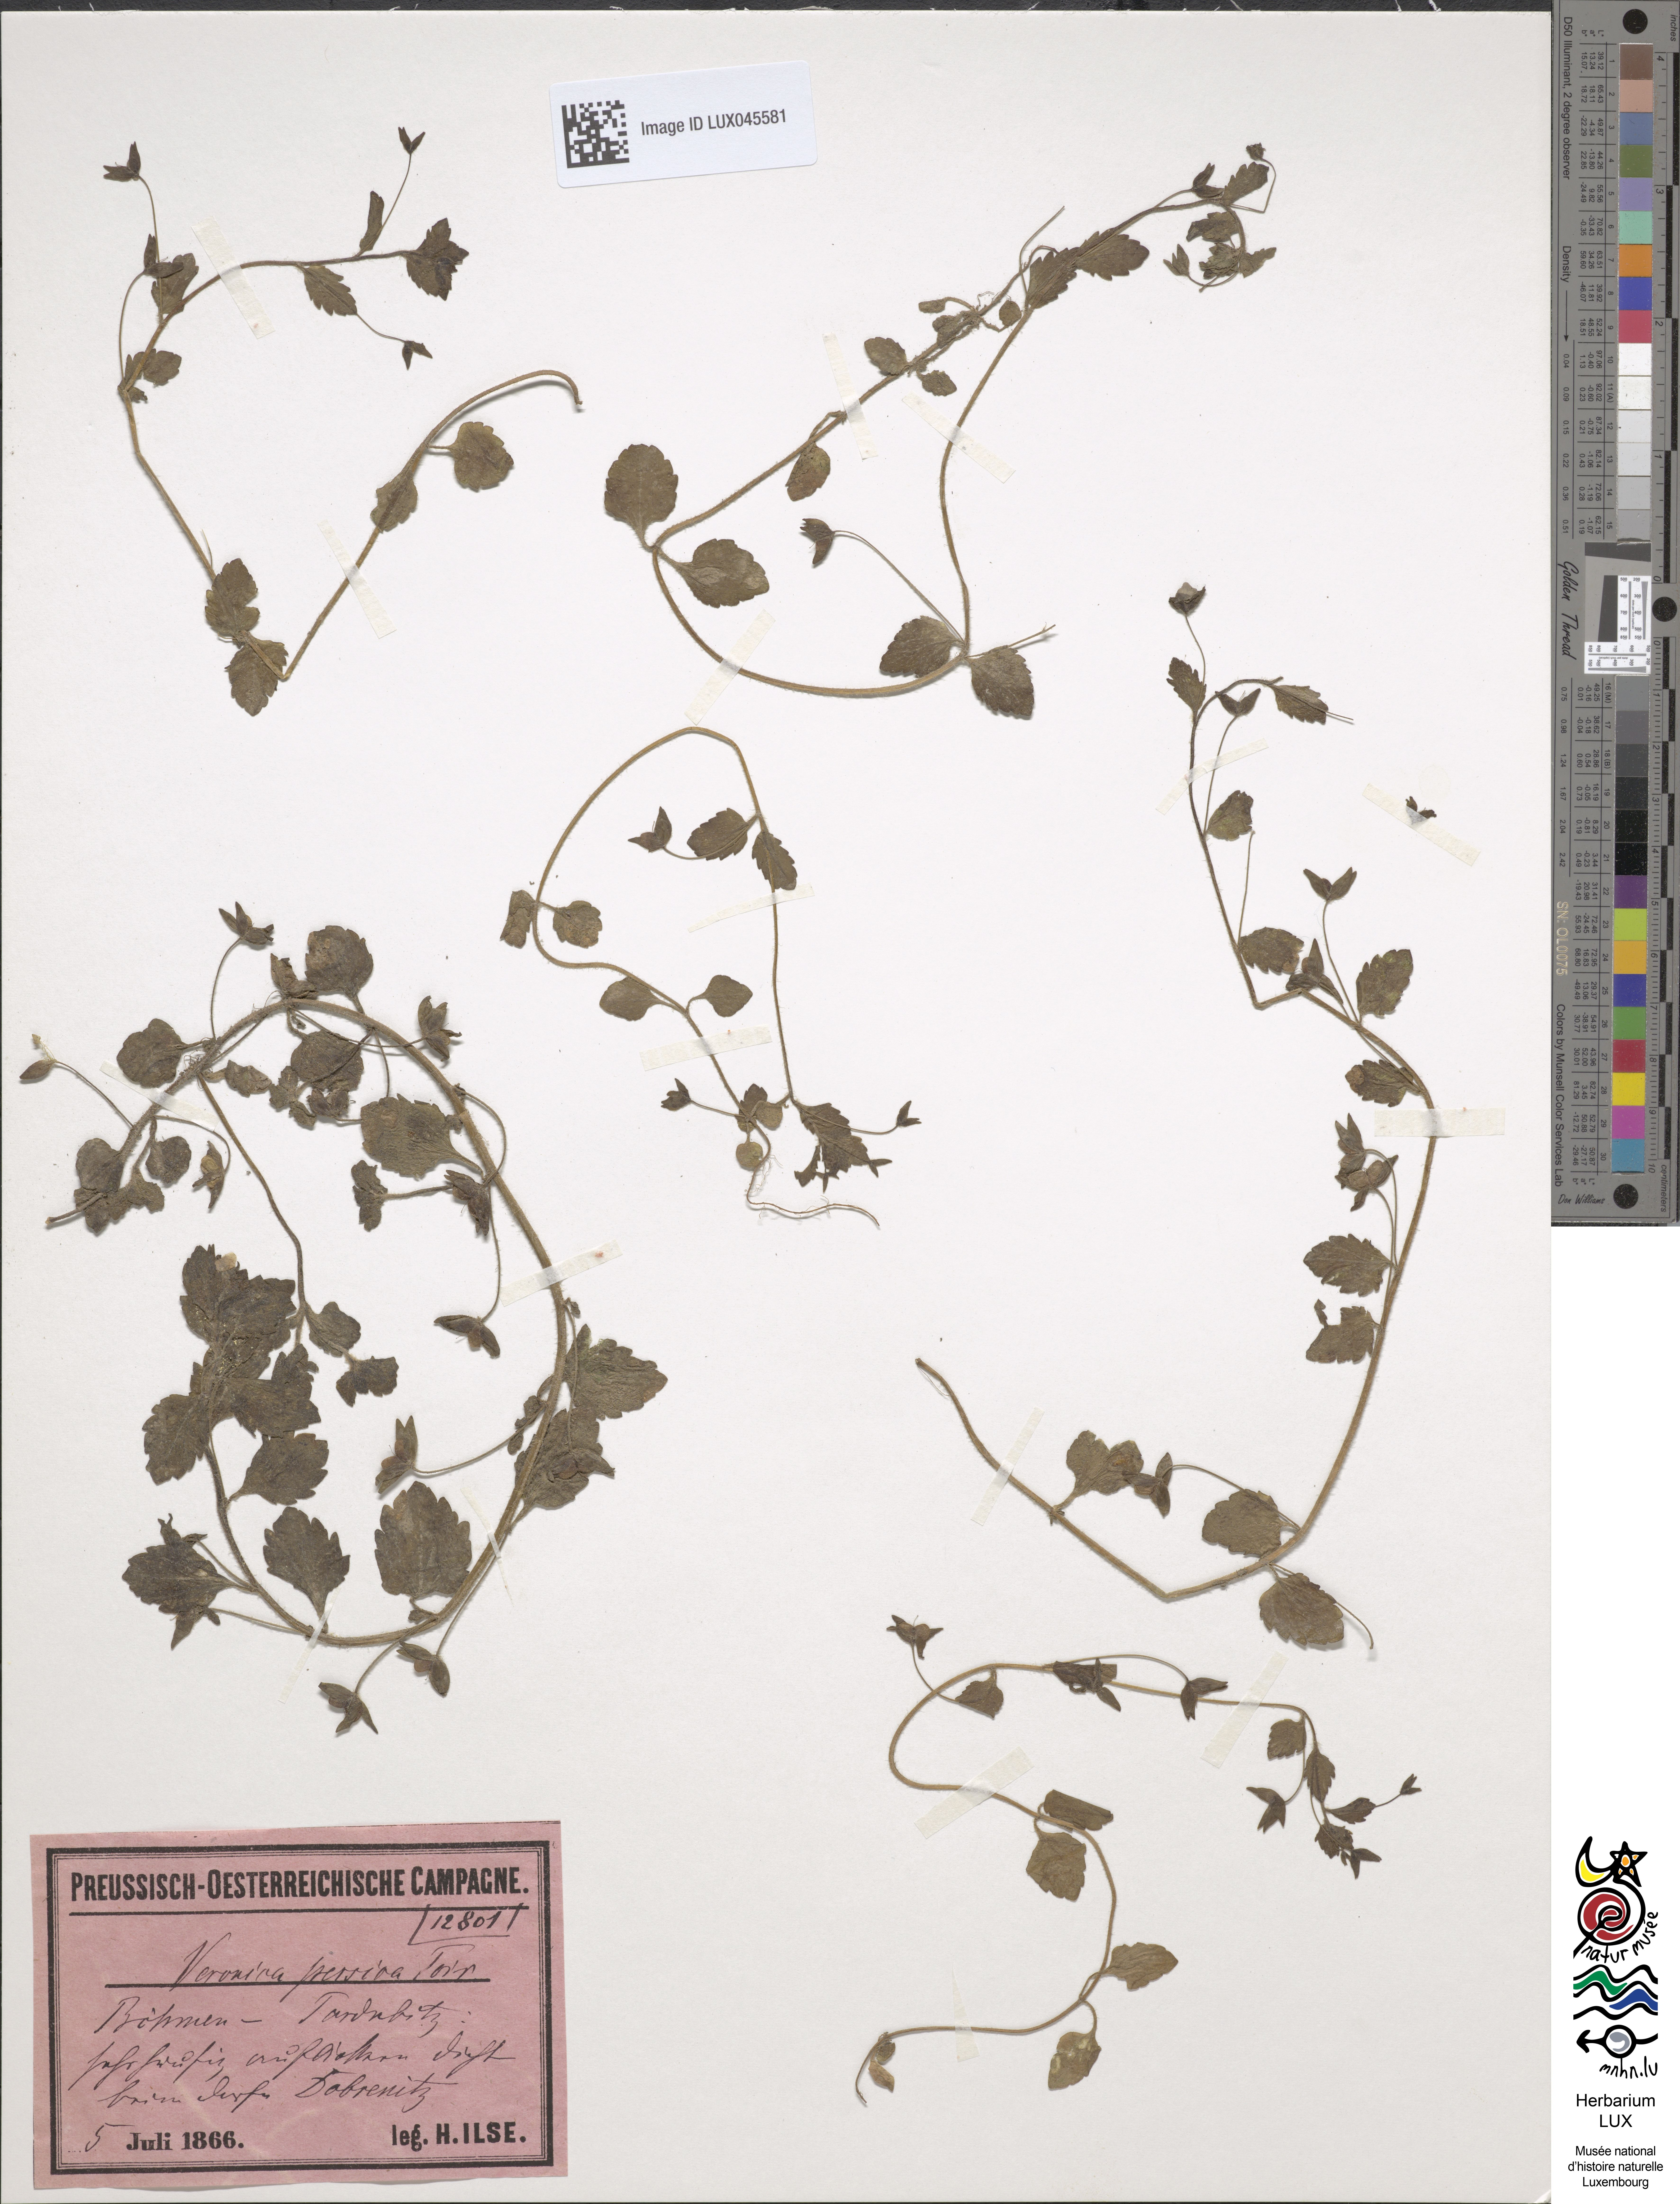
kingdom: Plantae
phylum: Tracheophyta
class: Magnoliopsida
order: Lamiales
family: Plantaginaceae
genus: Veronica
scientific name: Veronica persica
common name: Common field-speedwell
